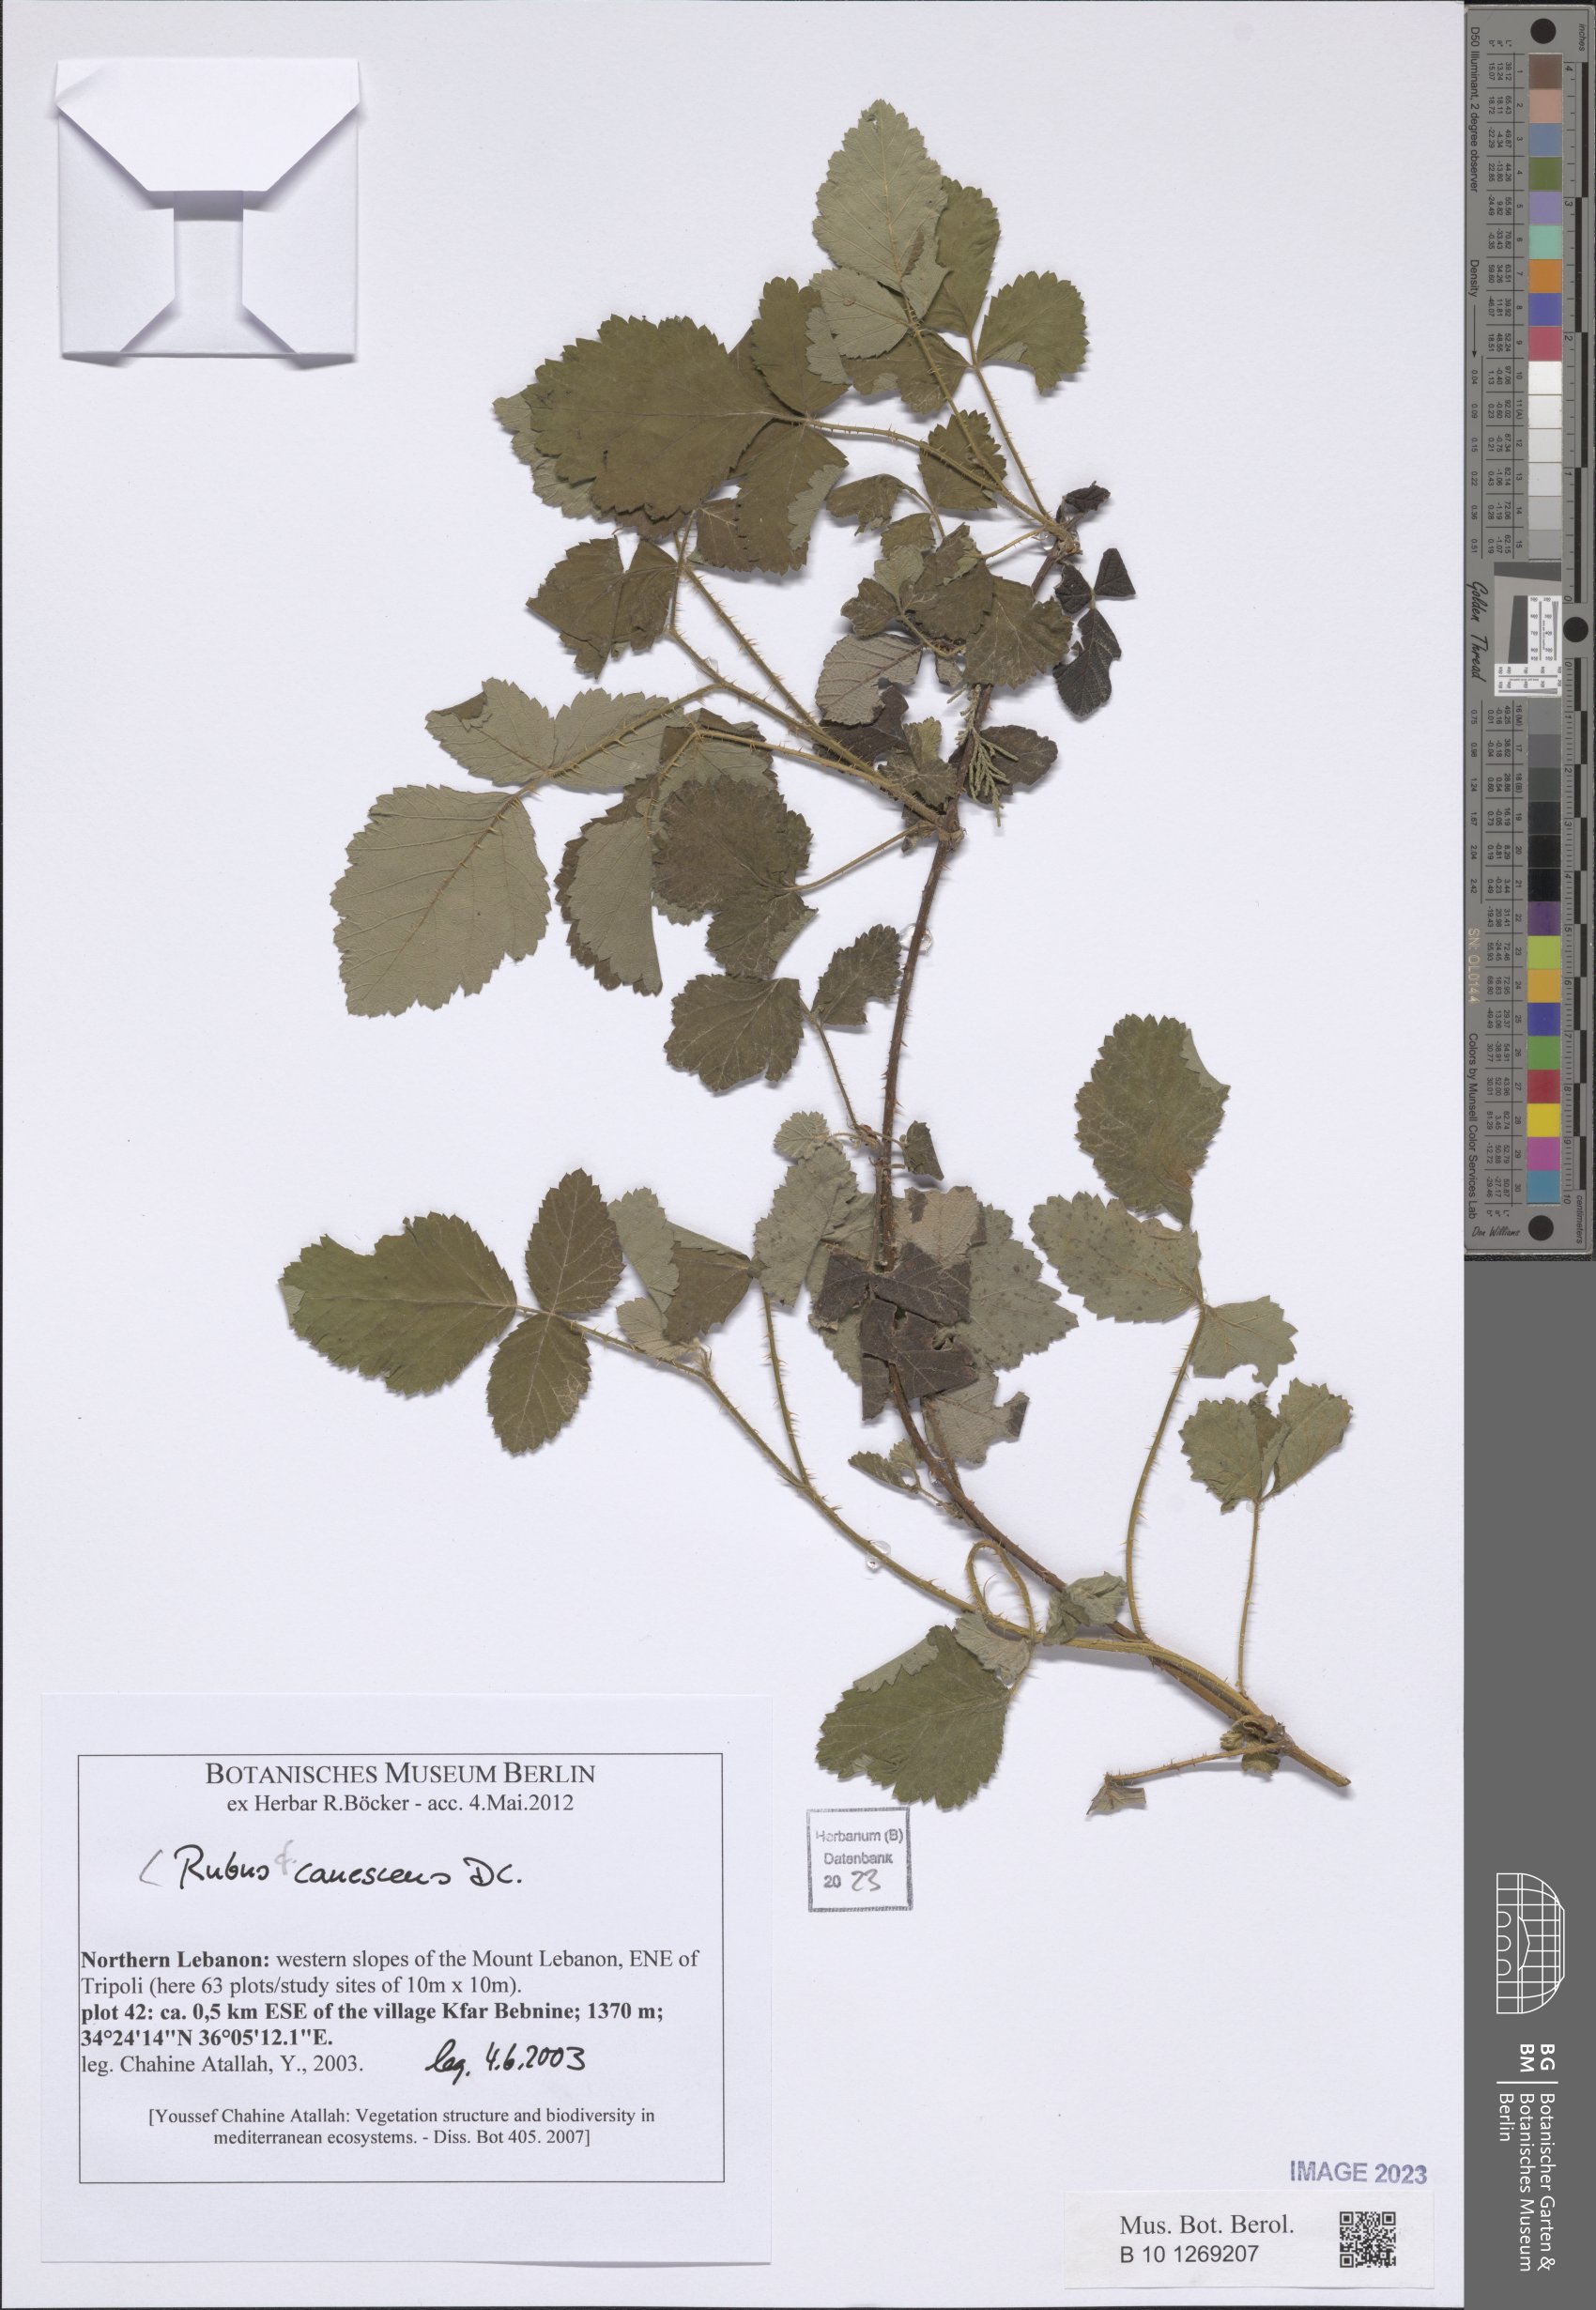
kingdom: Plantae
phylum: Tracheophyta
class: Magnoliopsida
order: Rosales
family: Rosaceae
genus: Rubus
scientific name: Rubus canescens
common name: Wooly blackberry
